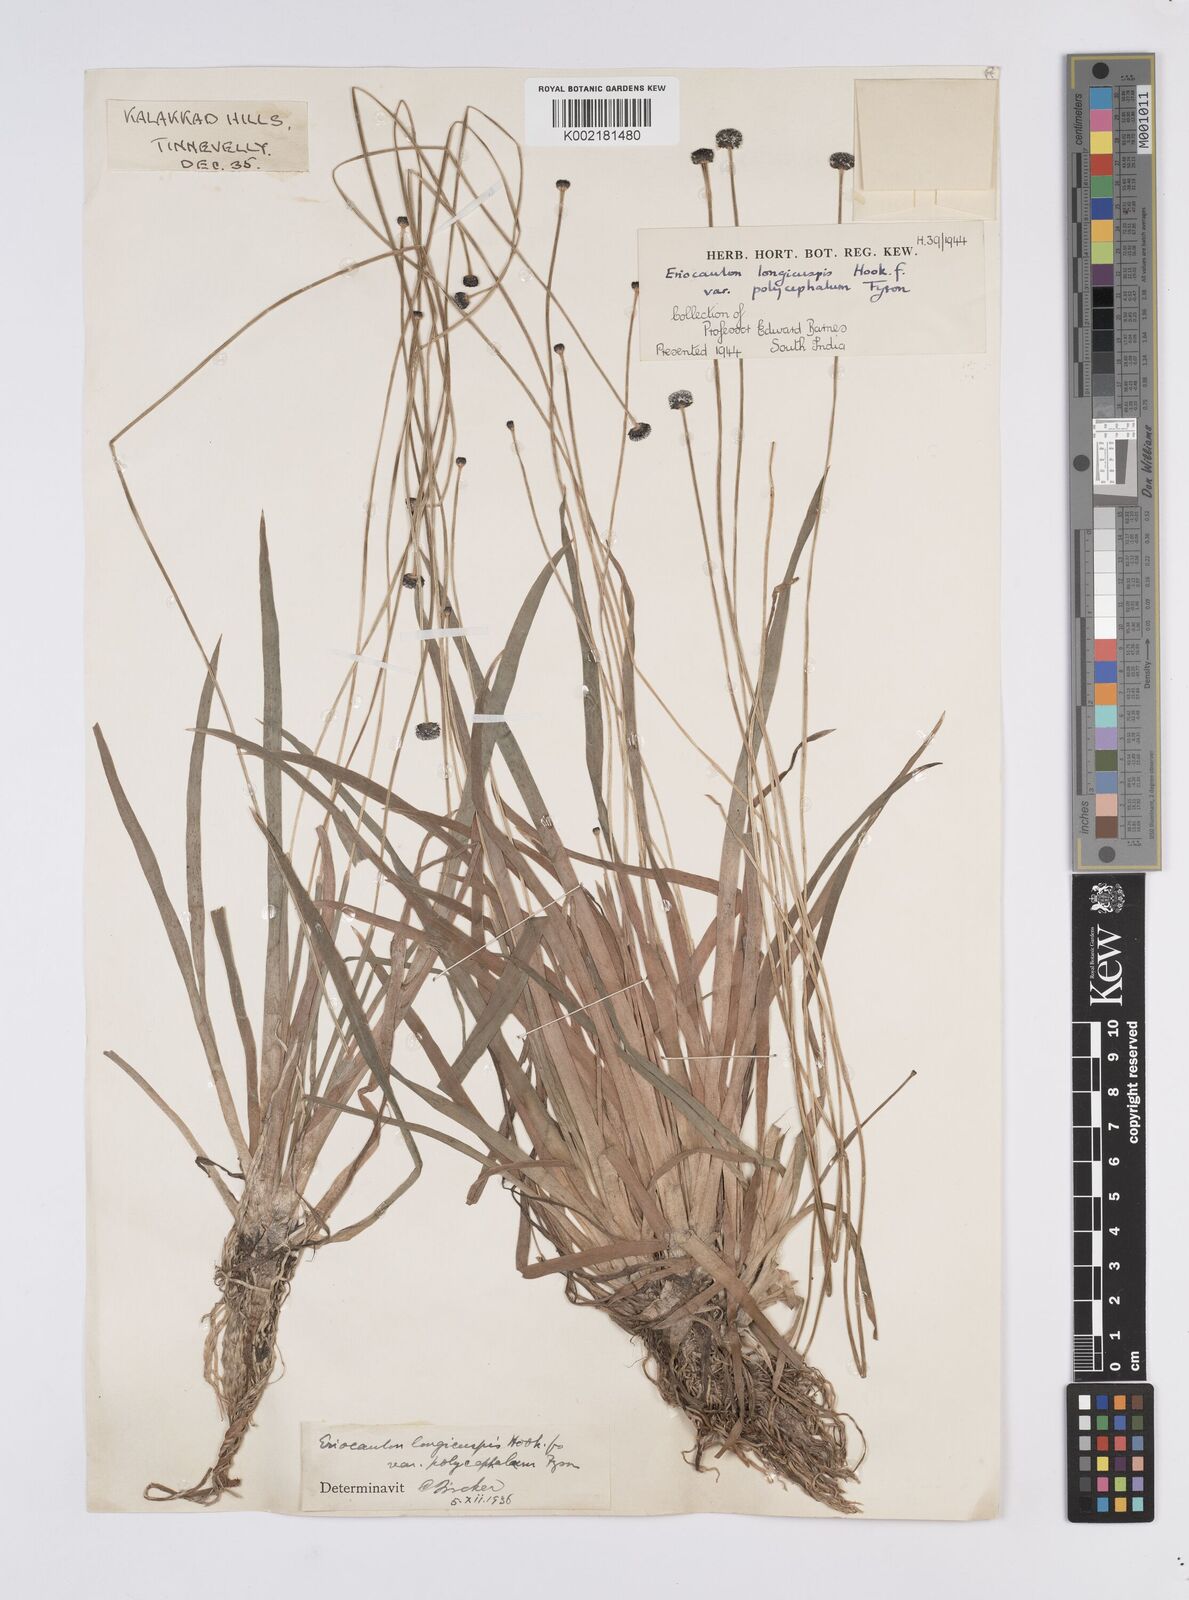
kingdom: Plantae
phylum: Tracheophyta
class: Liliopsida
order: Poales
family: Eriocaulaceae
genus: Eriocaulon
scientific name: Eriocaulon longicuspe
